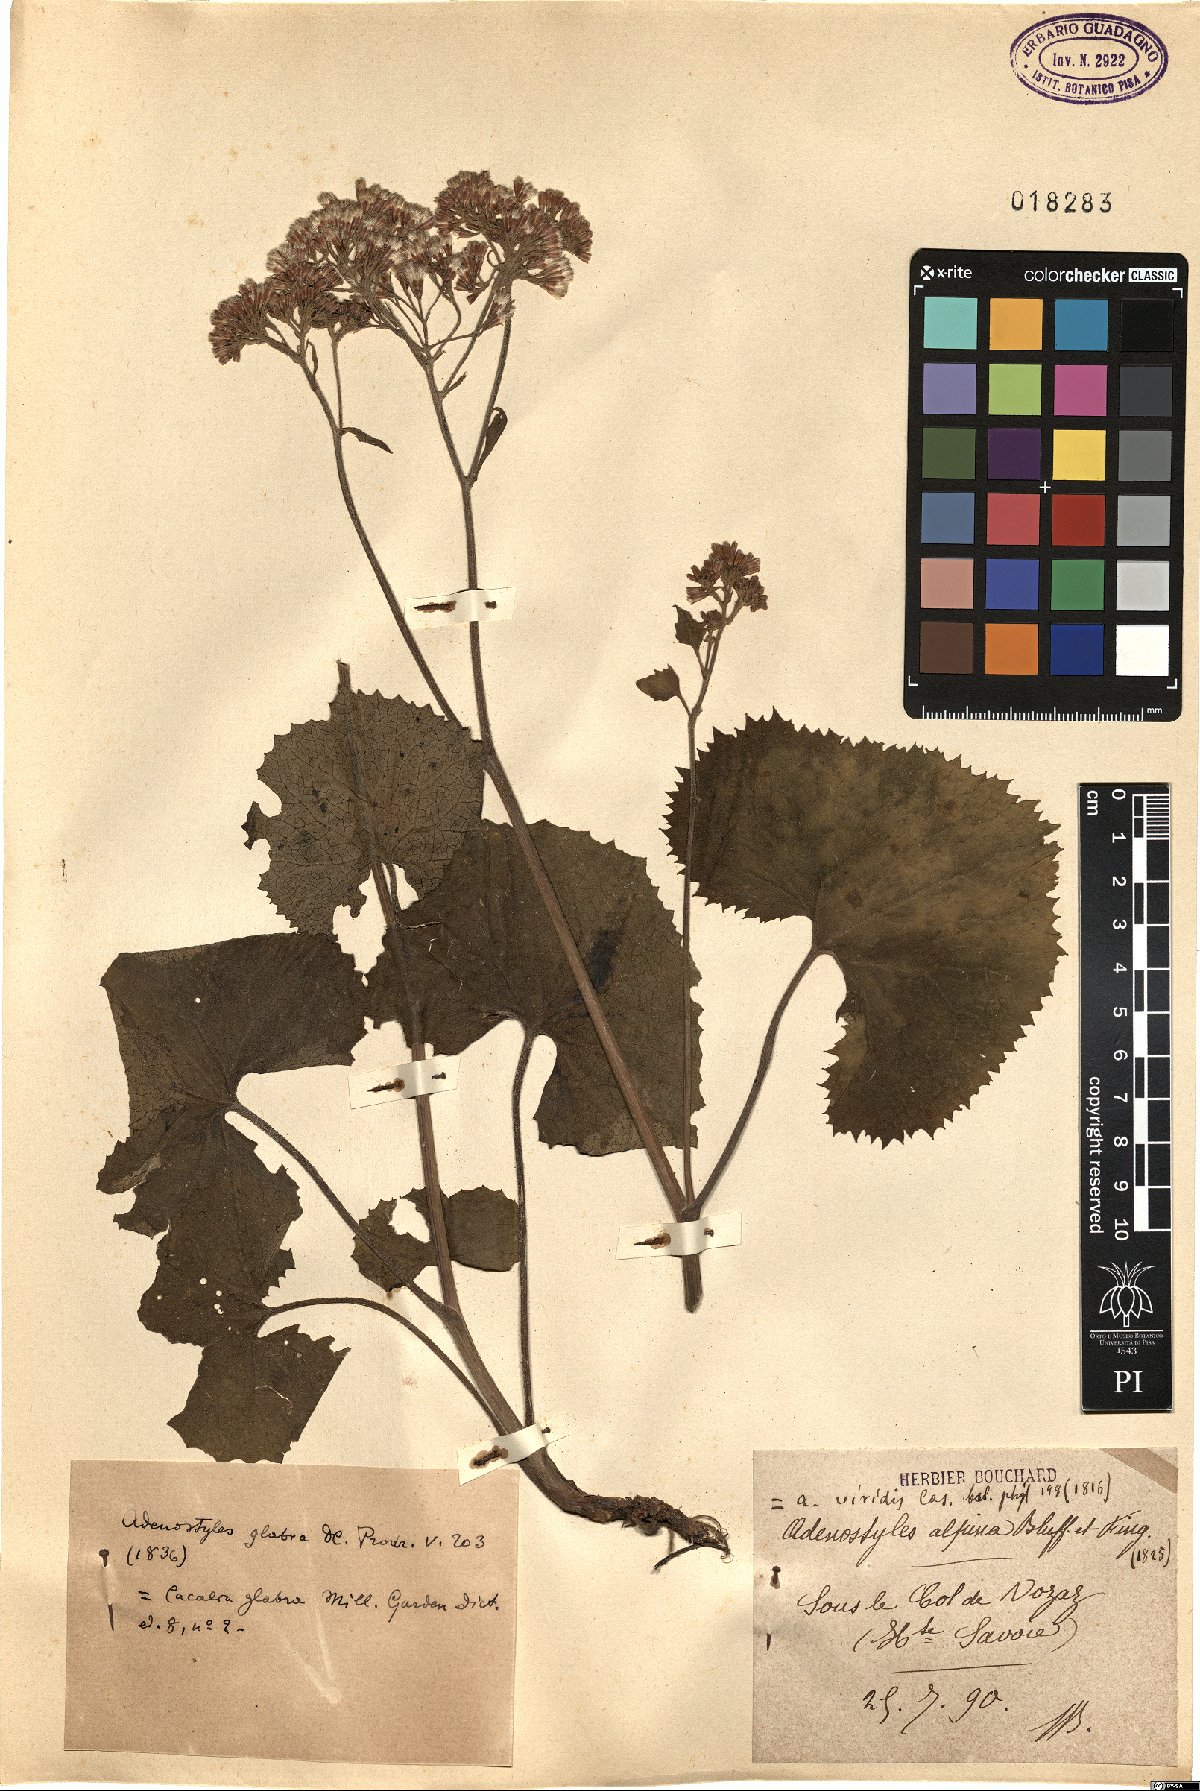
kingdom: Plantae
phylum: Tracheophyta
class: Magnoliopsida
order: Asterales
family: Asteraceae
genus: Adenostyles
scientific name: Adenostyles alpina
